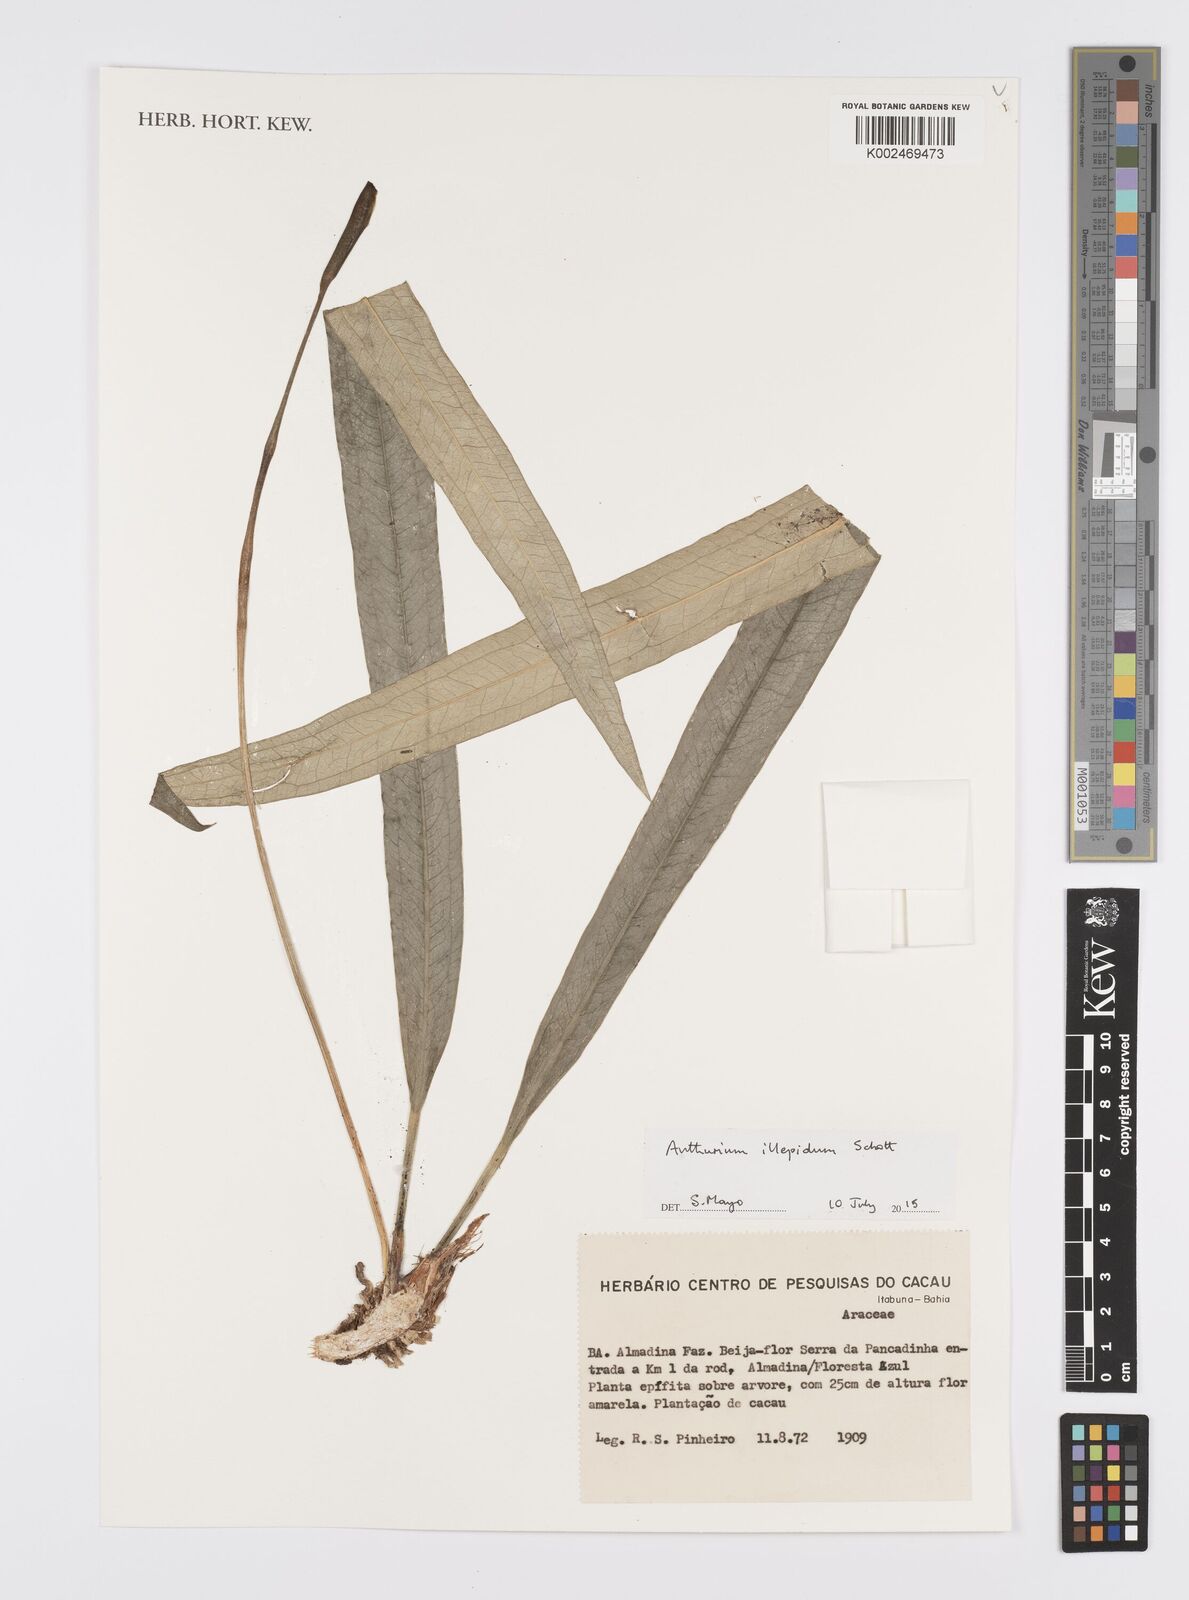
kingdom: Plantae
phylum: Tracheophyta
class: Liliopsida
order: Alismatales
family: Araceae
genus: Anthurium
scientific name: Anthurium illepidum
